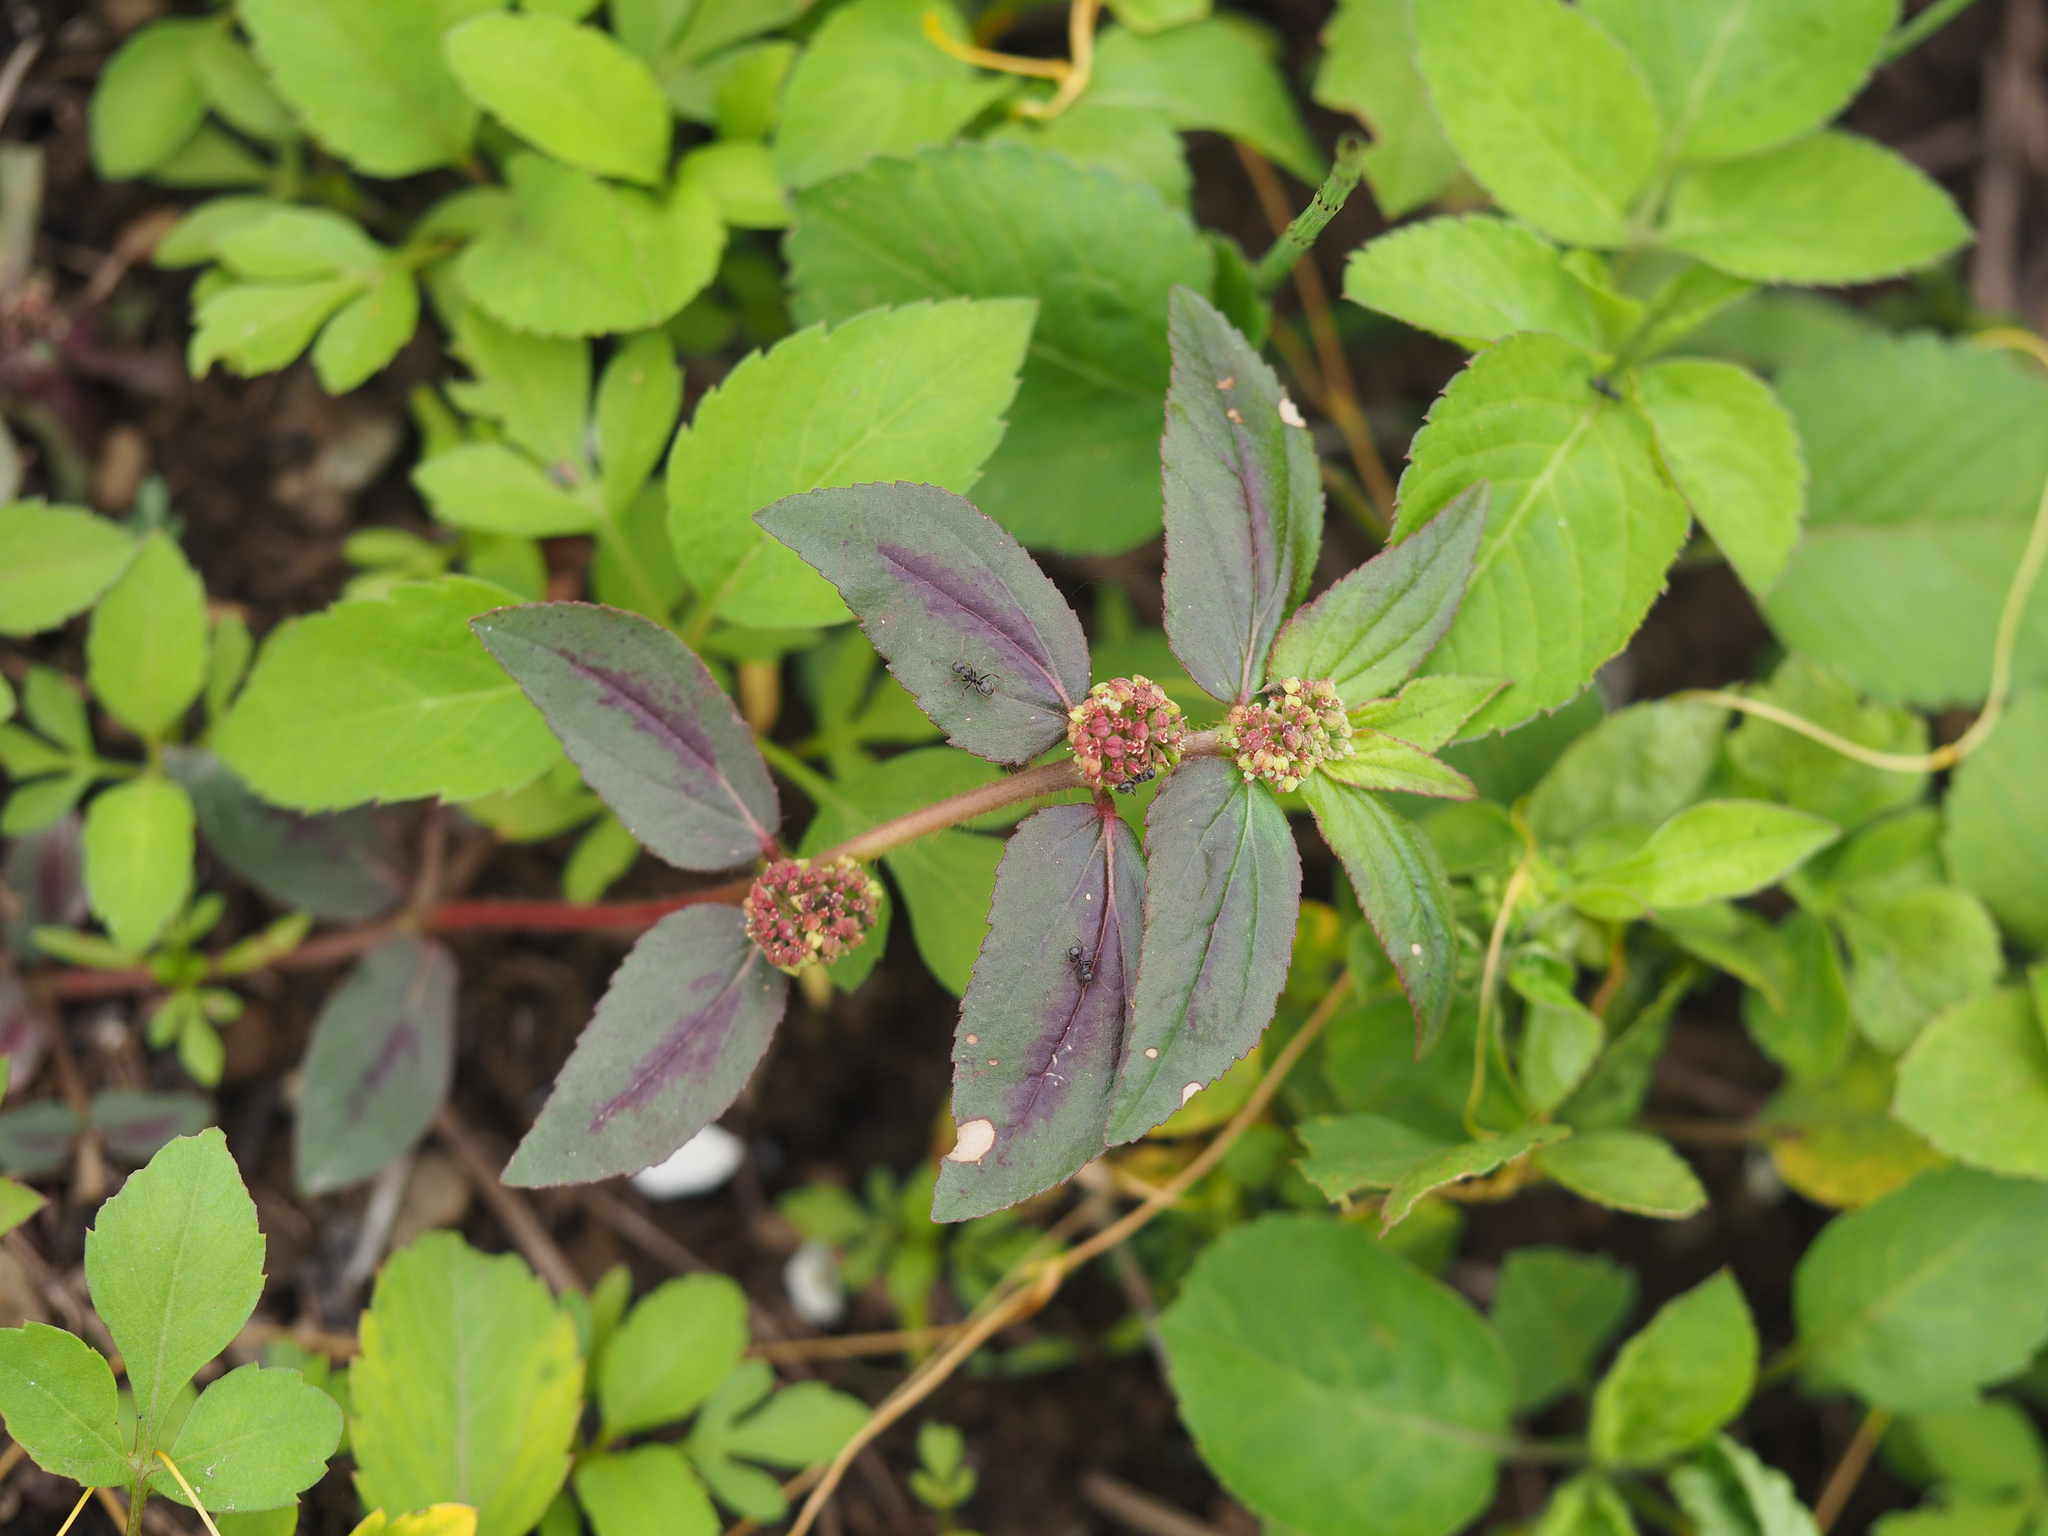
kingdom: Plantae
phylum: Tracheophyta
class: Magnoliopsida
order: Malpighiales
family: Euphorbiaceae
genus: Euphorbia
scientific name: Euphorbia hirta
